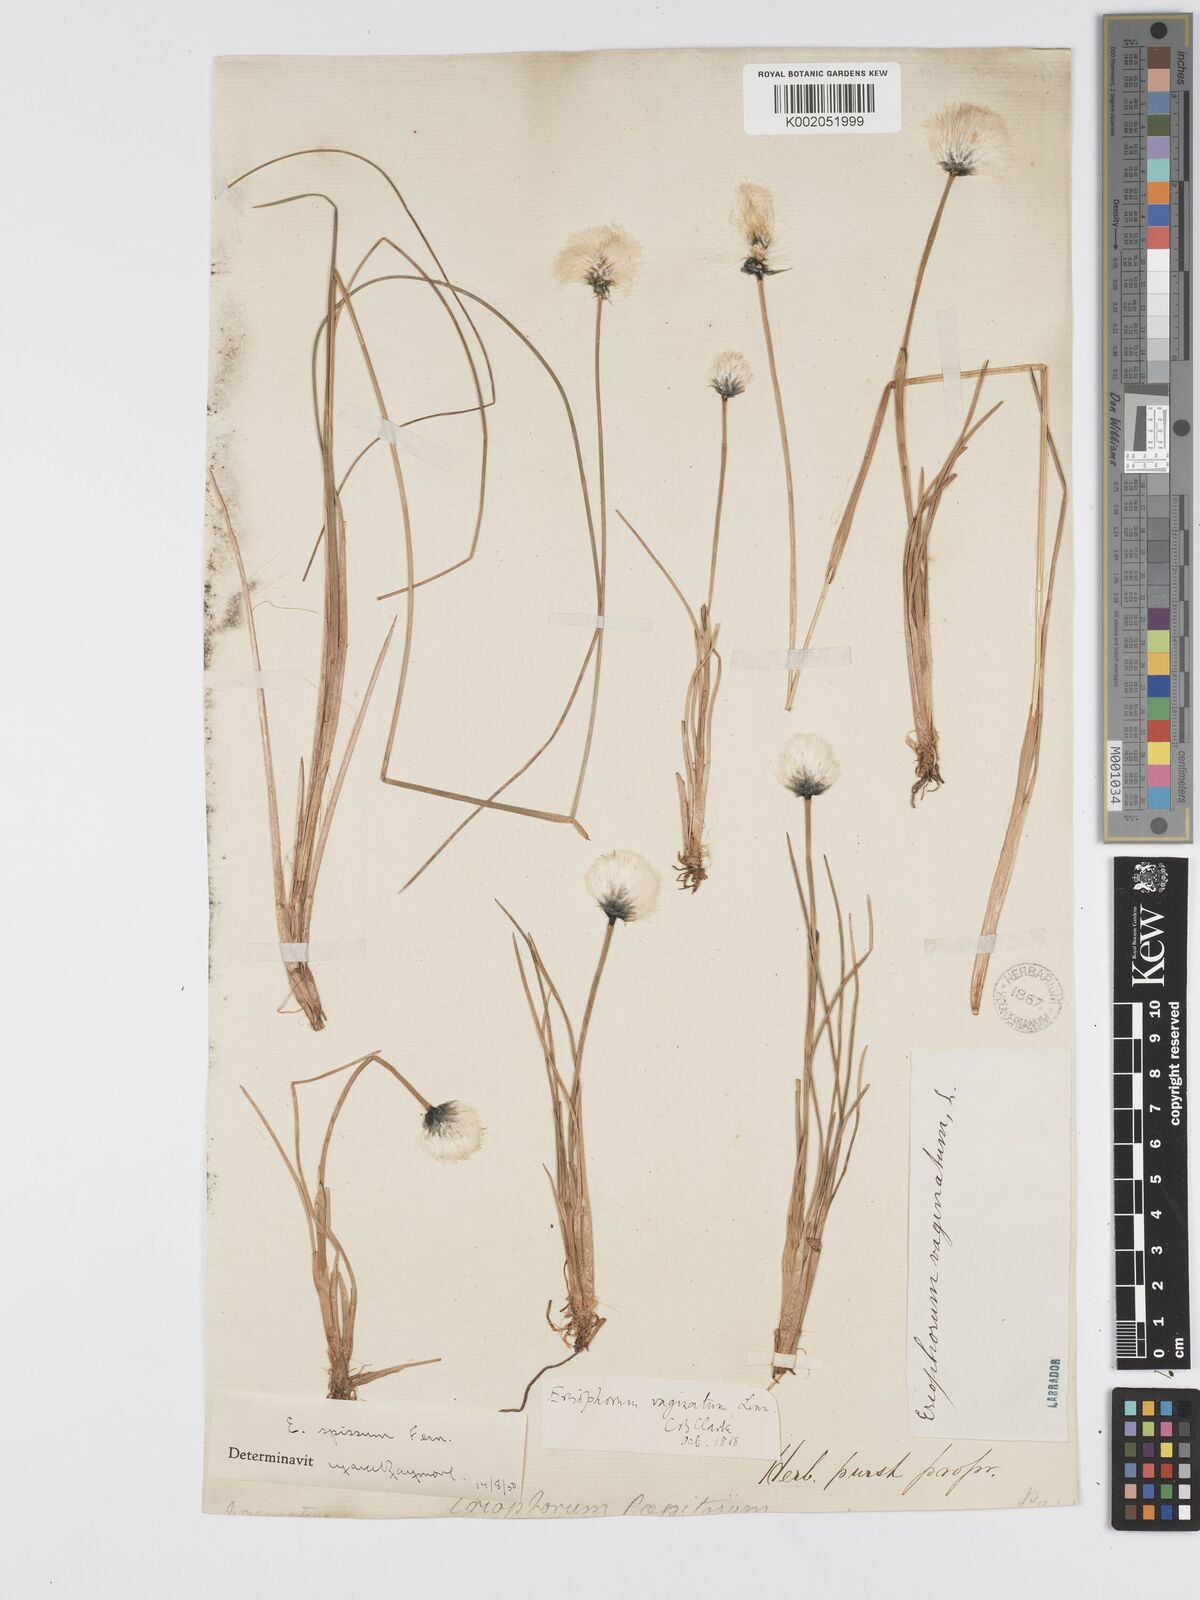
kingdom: Plantae
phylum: Tracheophyta
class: Liliopsida
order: Poales
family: Cyperaceae
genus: Eriophorum
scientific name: Eriophorum vaginatum
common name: Hare's-tail cottongrass
